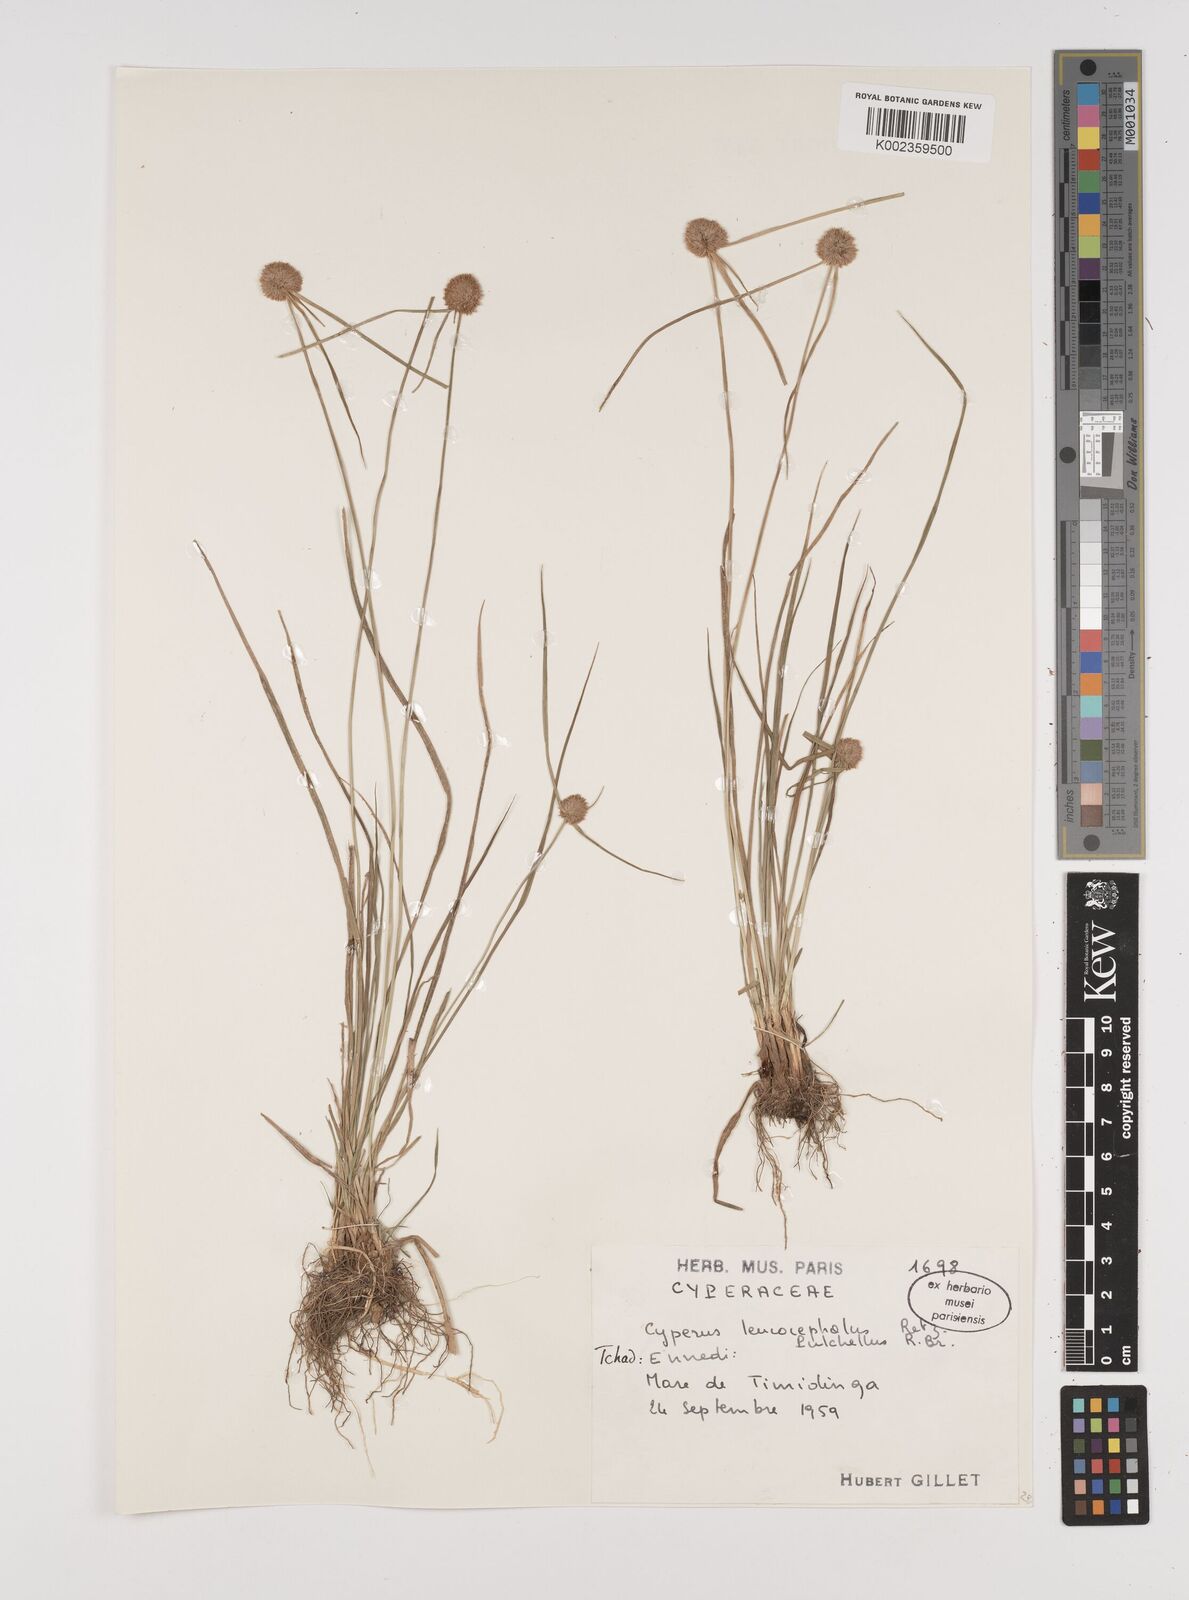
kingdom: Plantae
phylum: Tracheophyta
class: Liliopsida
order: Poales
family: Cyperaceae
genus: Cyperus
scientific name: Cyperus pulchellus
